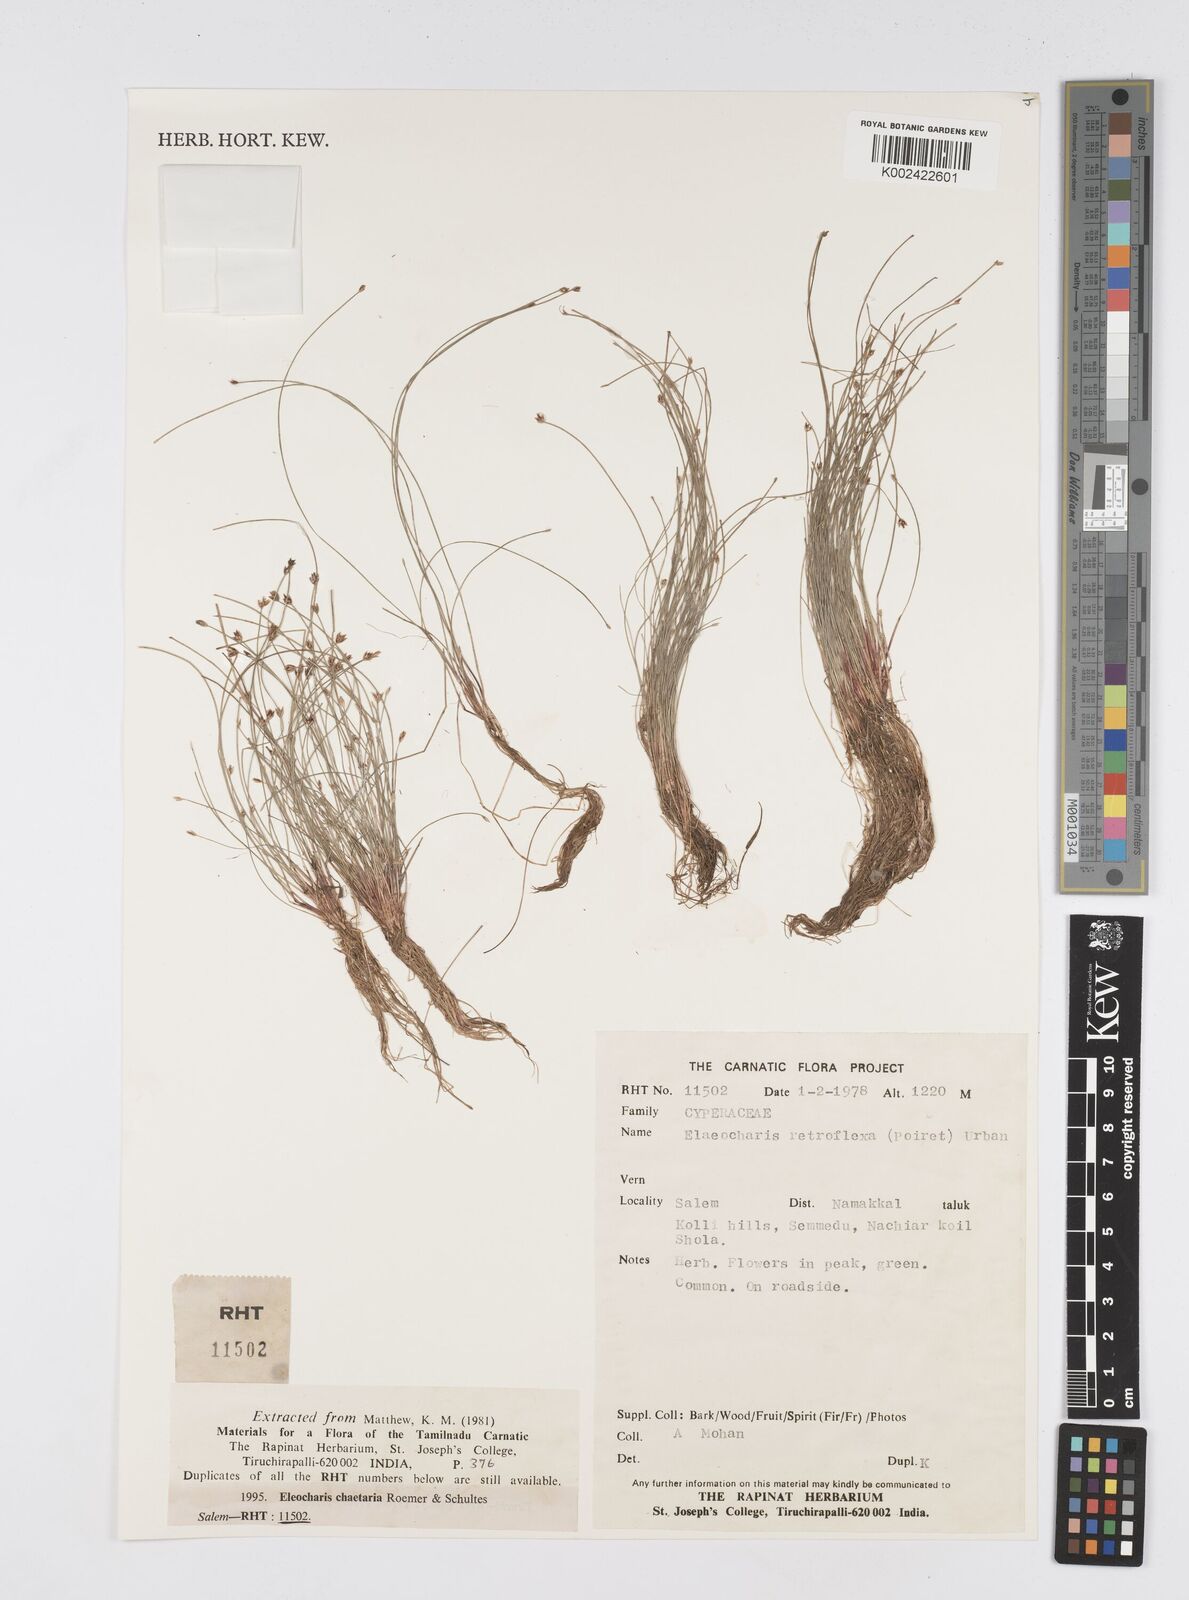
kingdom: Plantae
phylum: Tracheophyta
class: Liliopsida
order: Poales
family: Cyperaceae
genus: Eleocharis
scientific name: Eleocharis retroflexa
